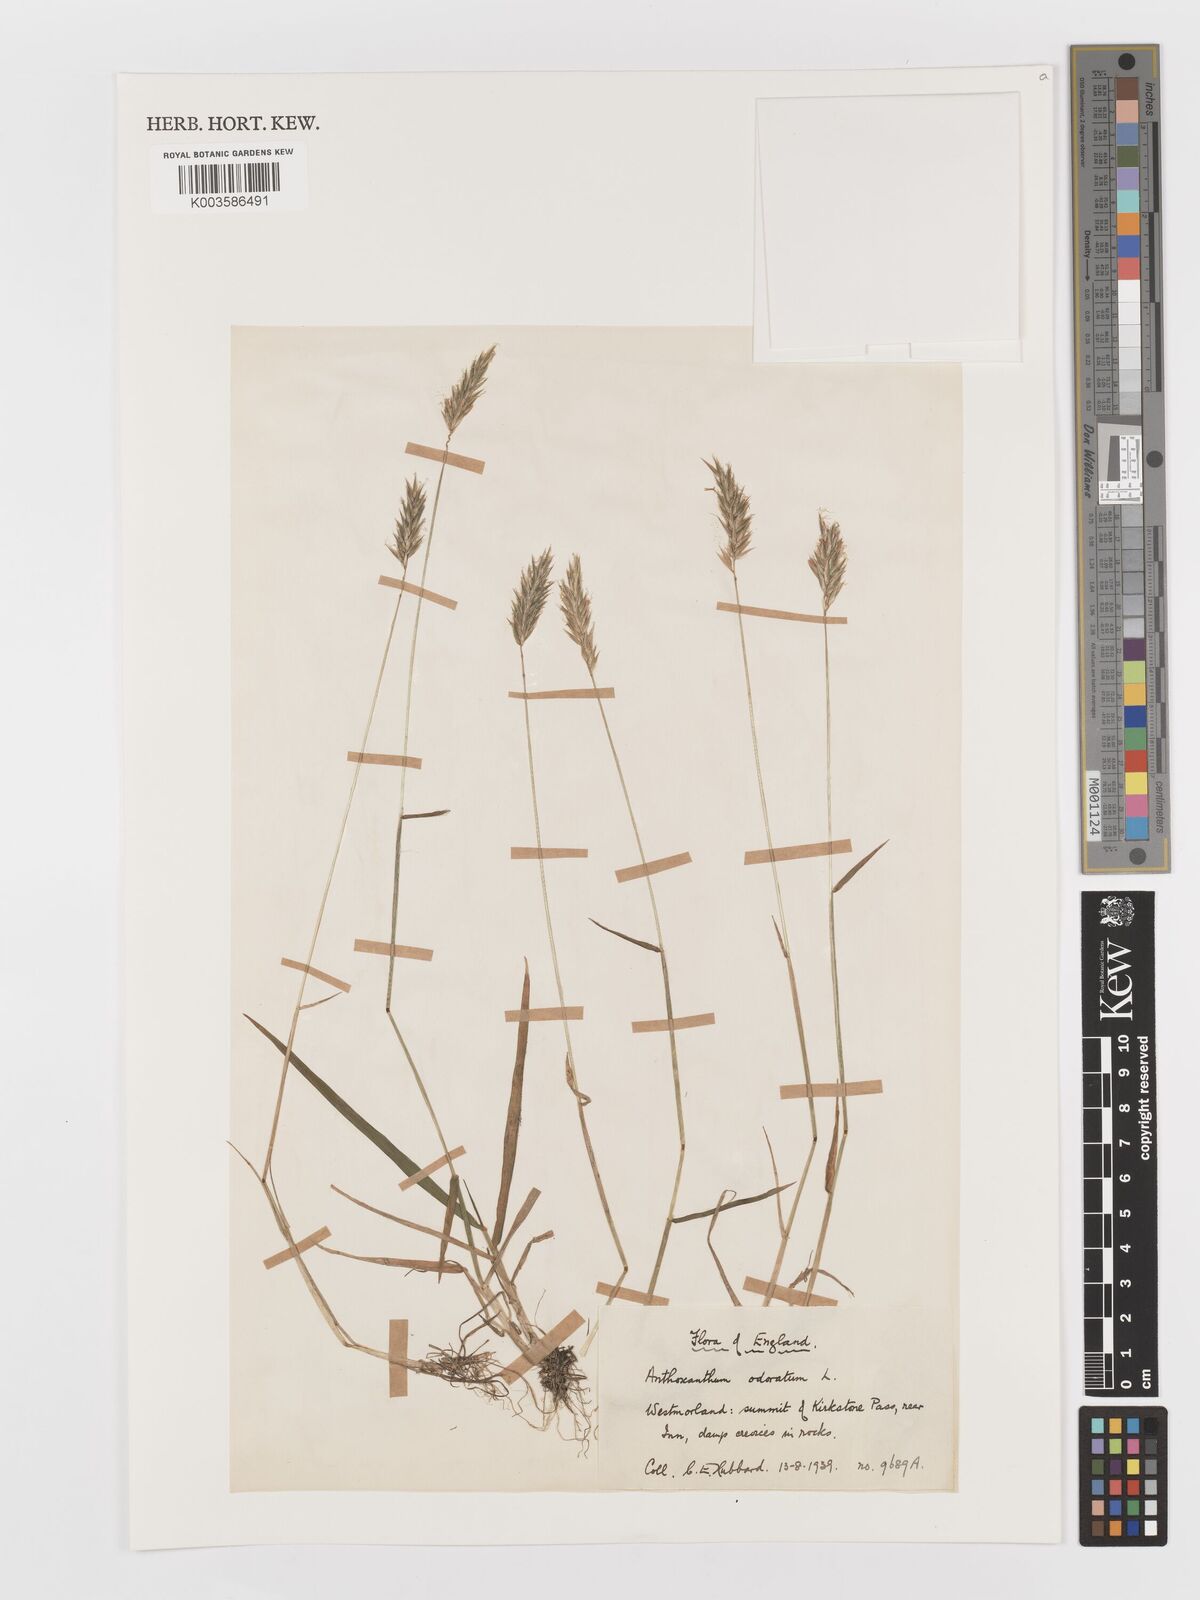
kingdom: Plantae
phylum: Tracheophyta
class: Liliopsida
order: Poales
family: Poaceae
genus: Anthoxanthum
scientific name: Anthoxanthum odoratum
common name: Sweet vernalgrass
